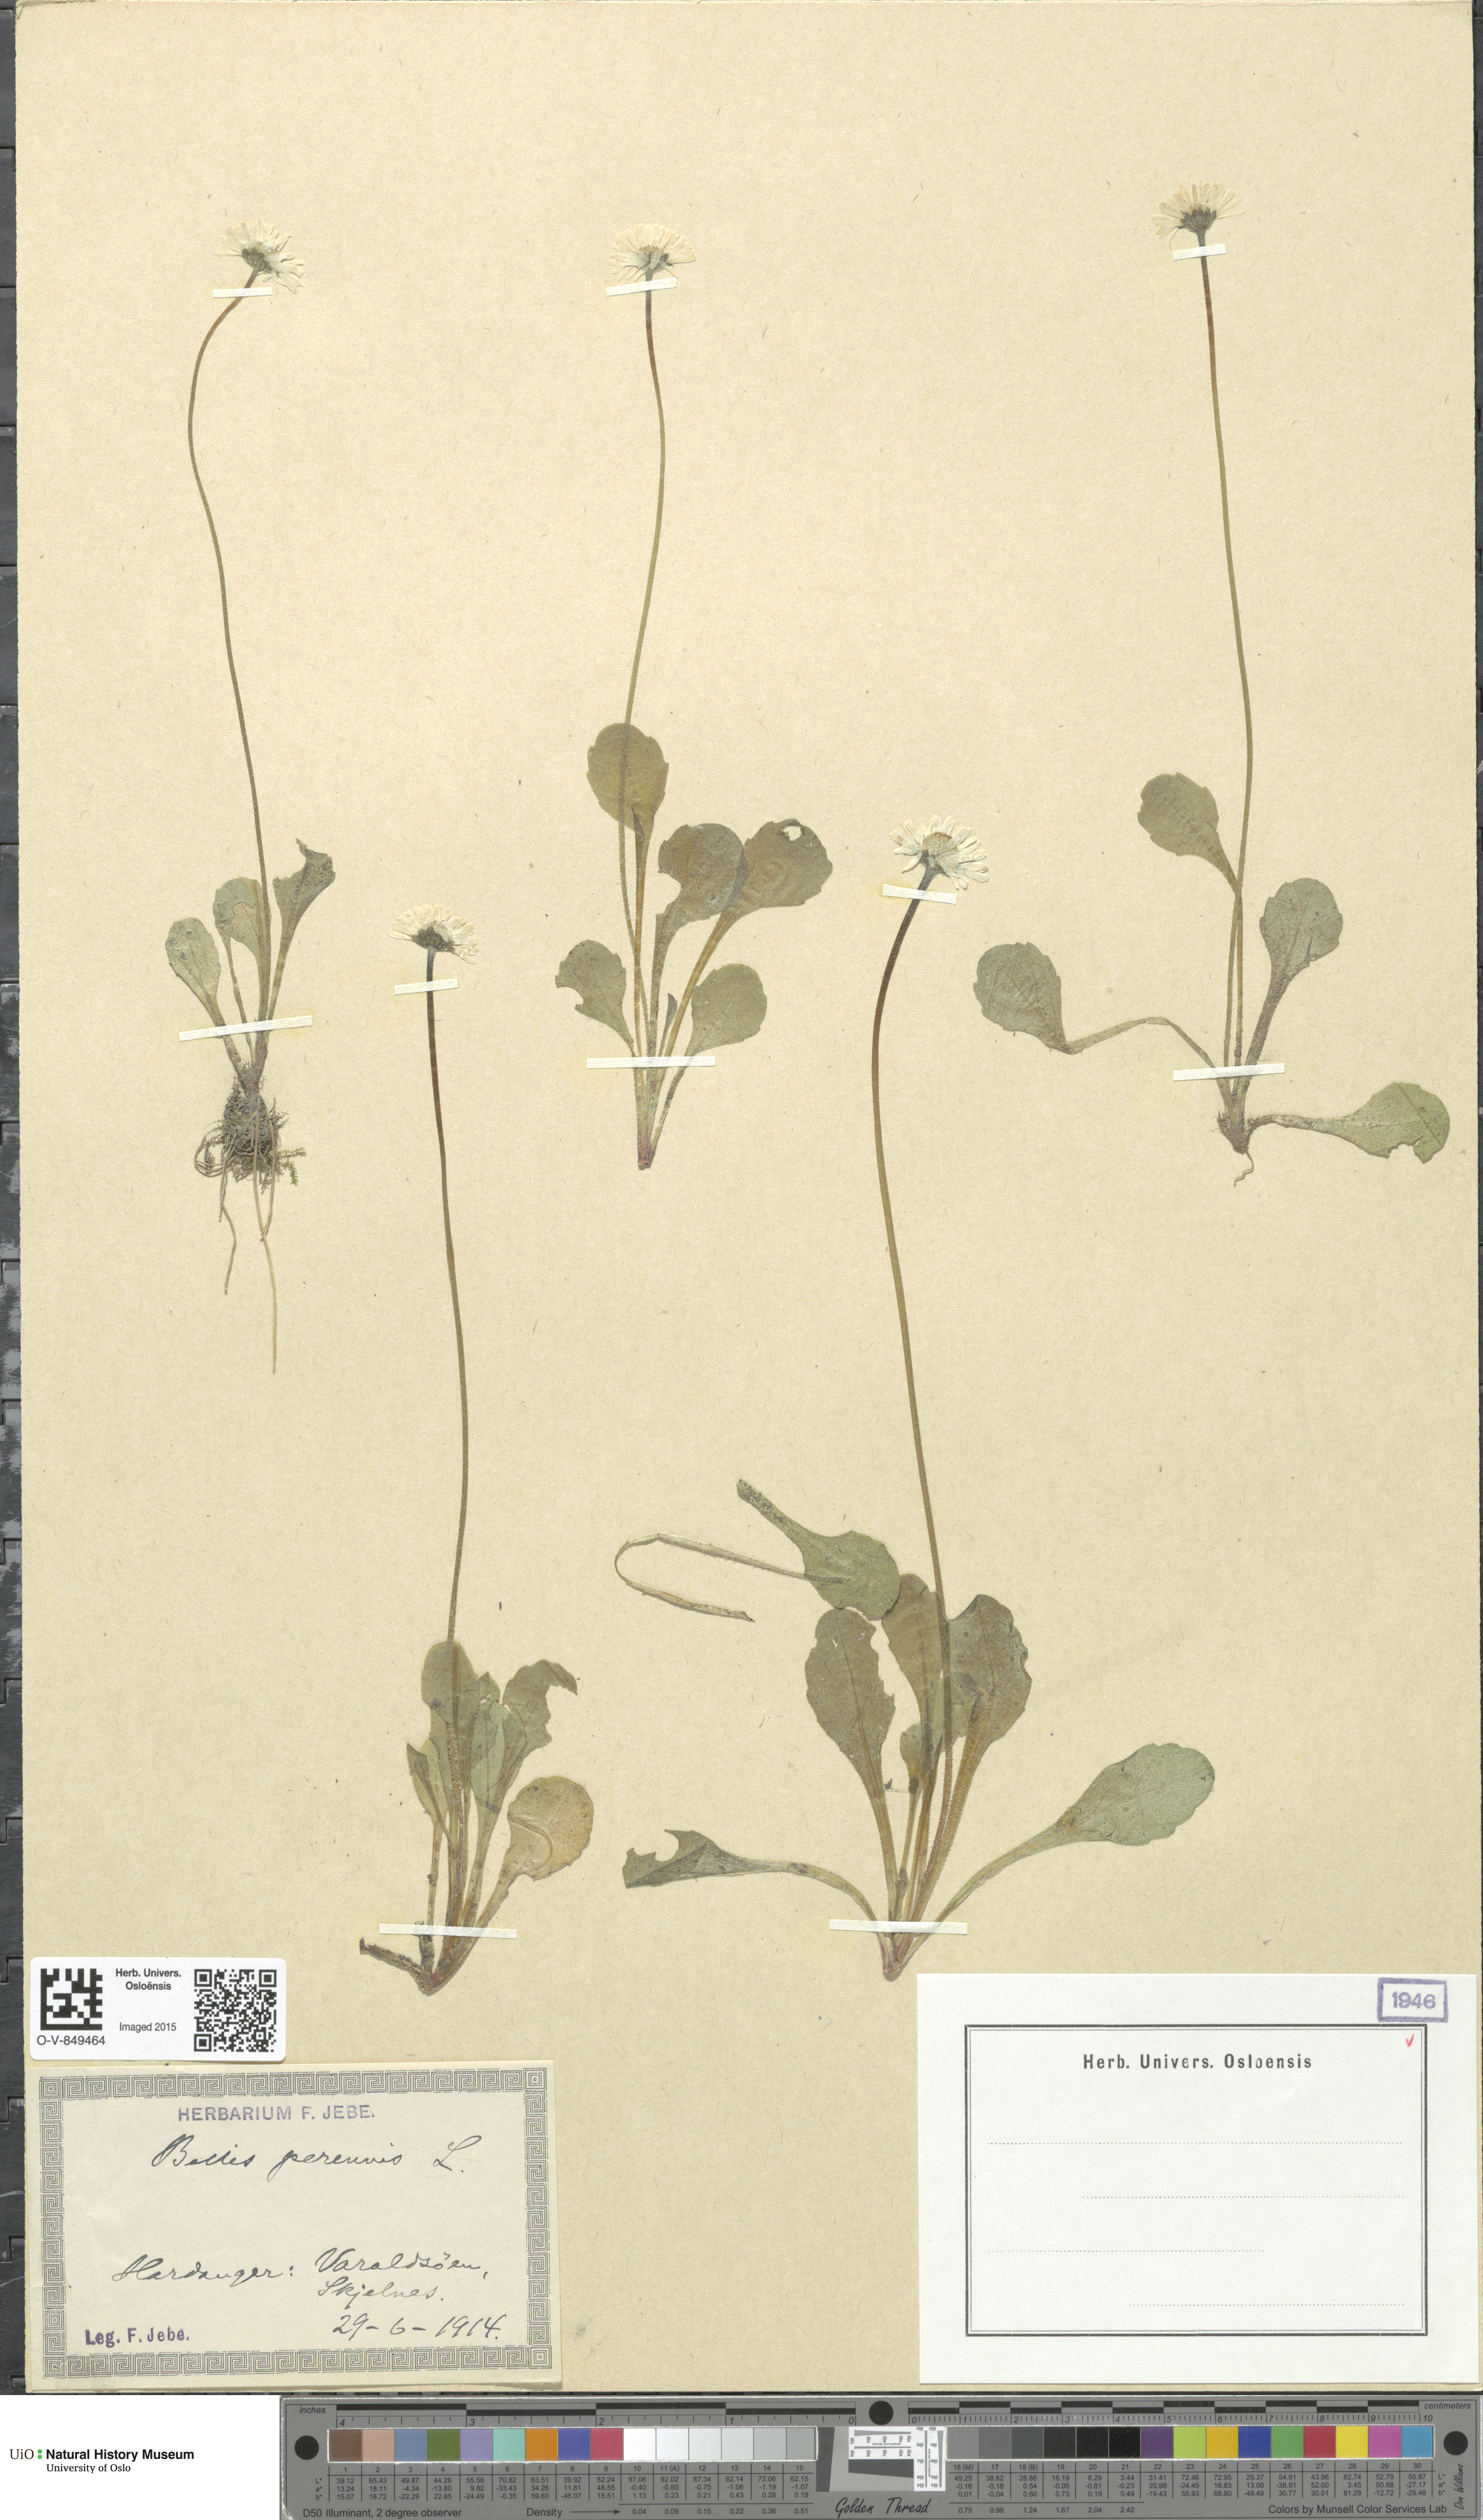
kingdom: Plantae
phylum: Tracheophyta
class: Magnoliopsida
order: Asterales
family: Asteraceae
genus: Bellis
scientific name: Bellis perennis
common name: Lawndaisy
